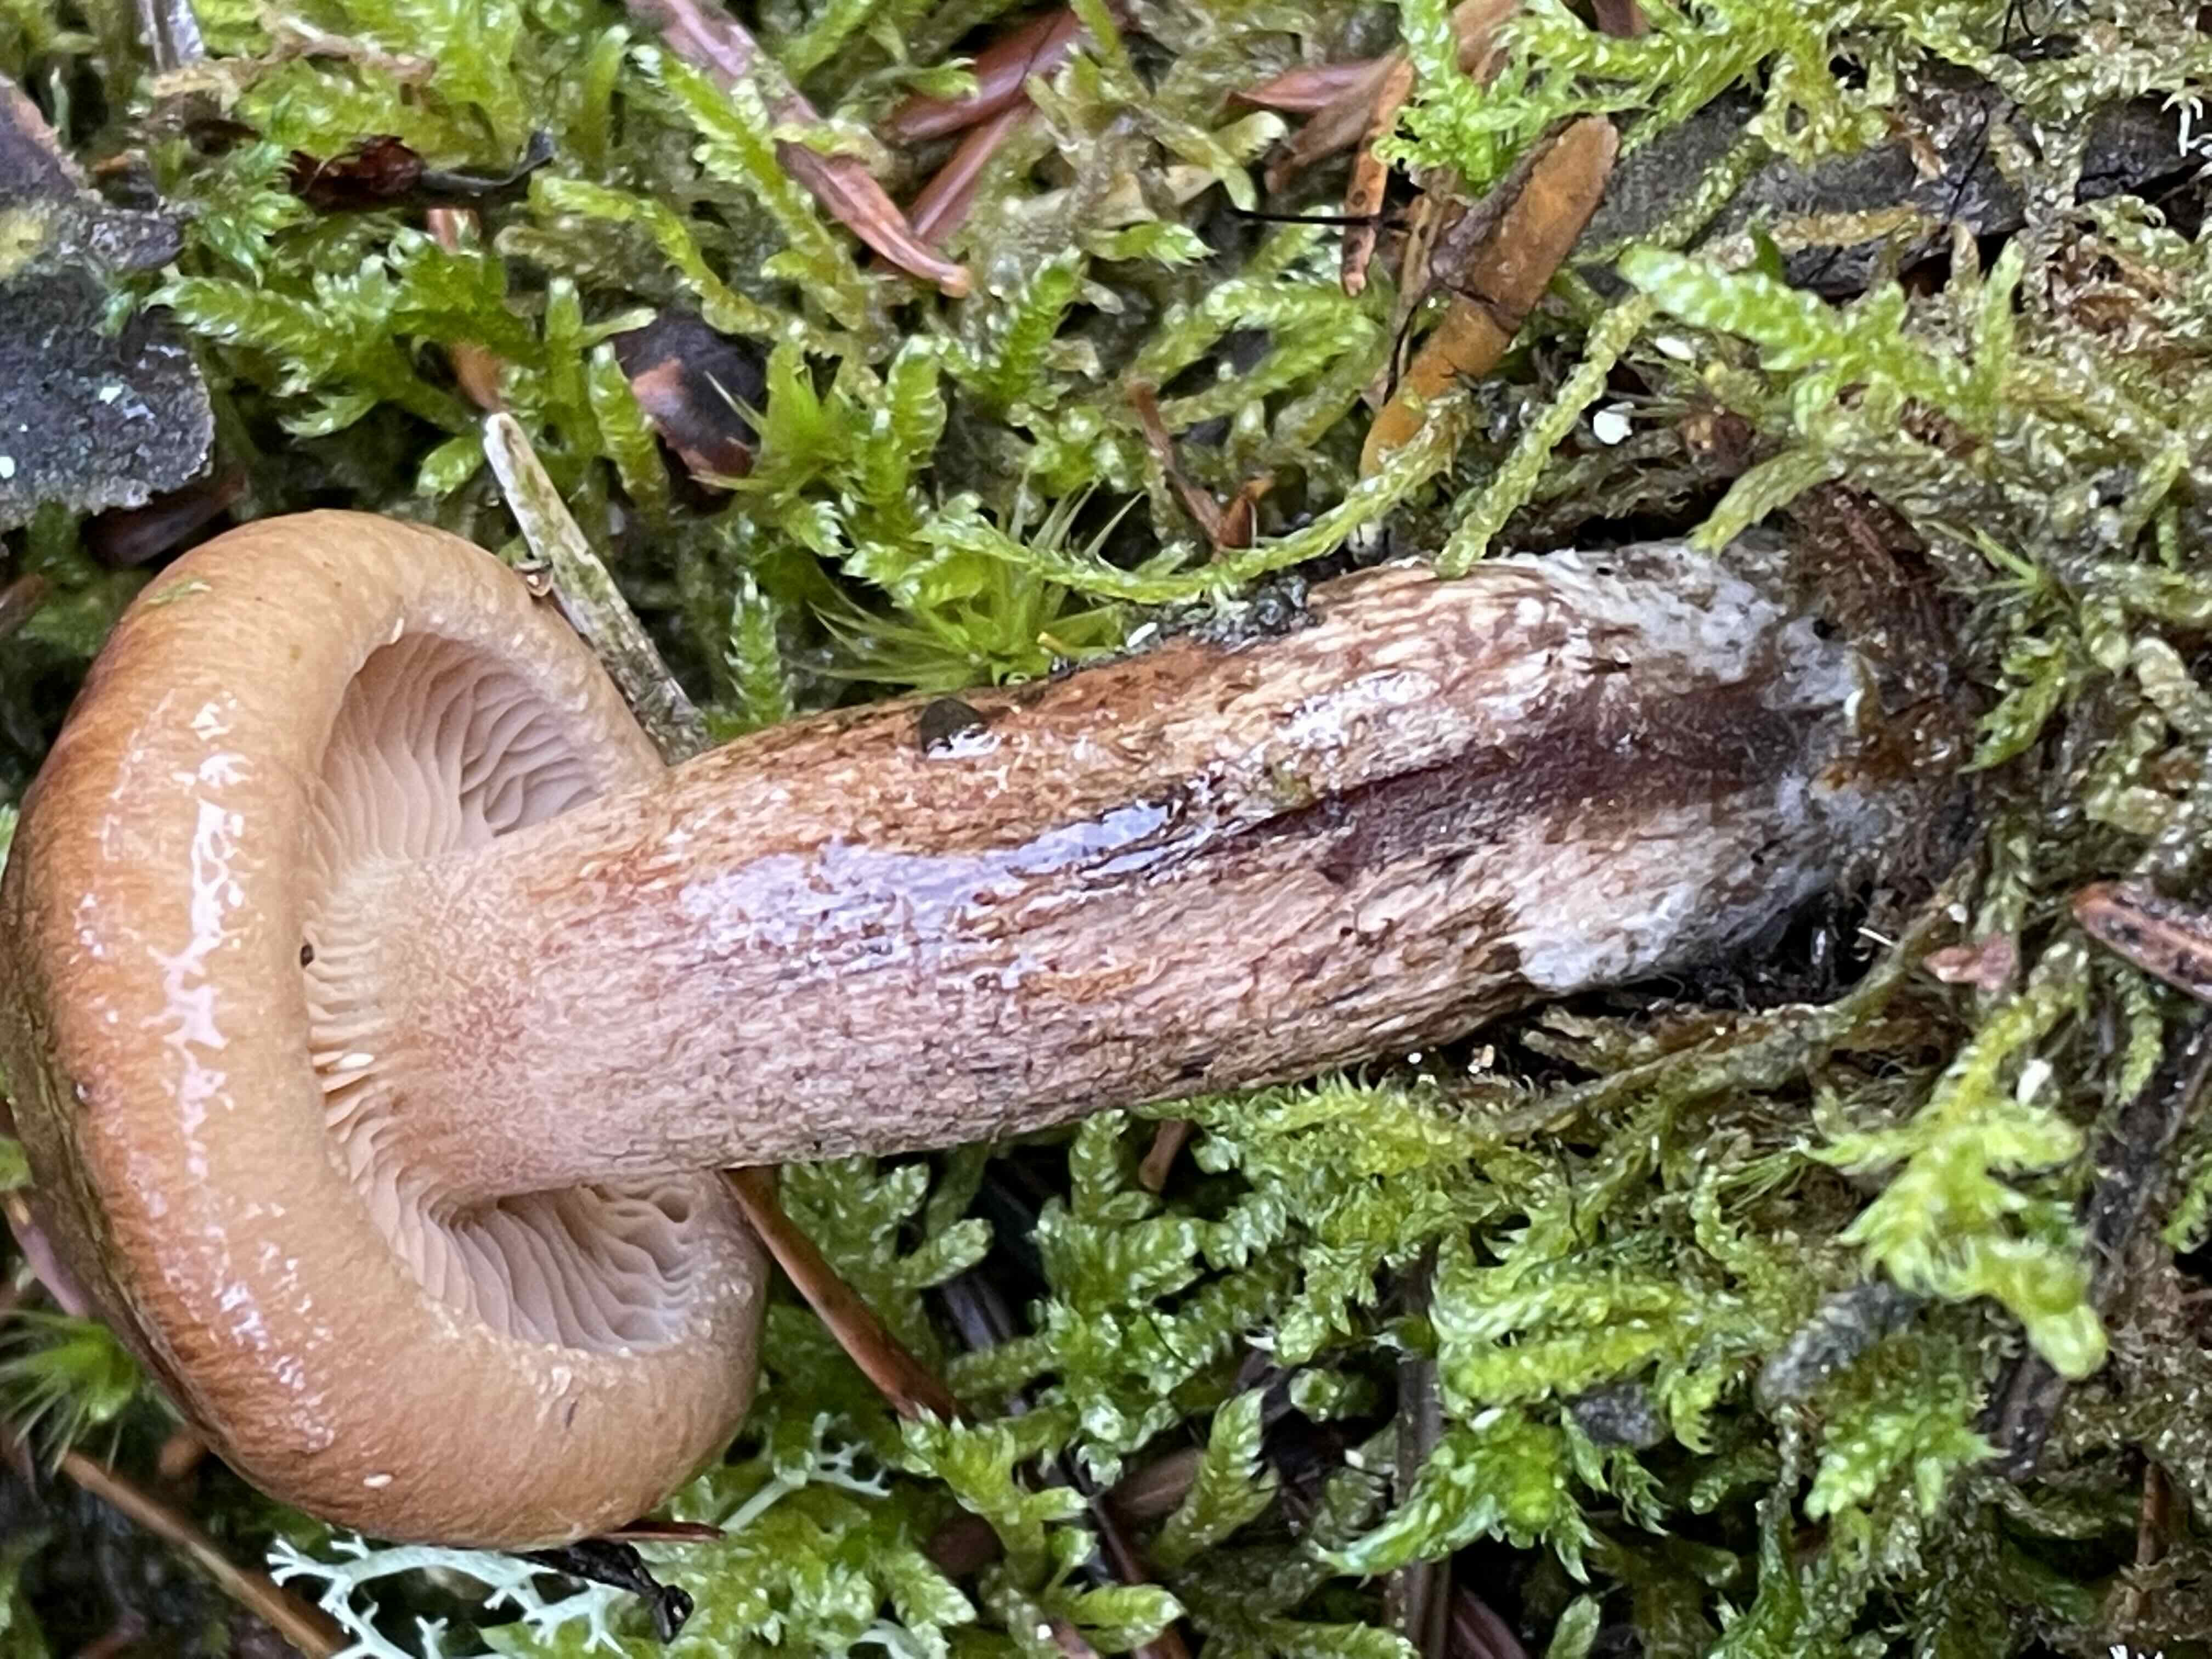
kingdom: Fungi
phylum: Basidiomycota
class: Agaricomycetes
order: Agaricales
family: Tricholomataceae
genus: Tricholoma
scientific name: Tricholoma fulvum
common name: birke-ridderhat
